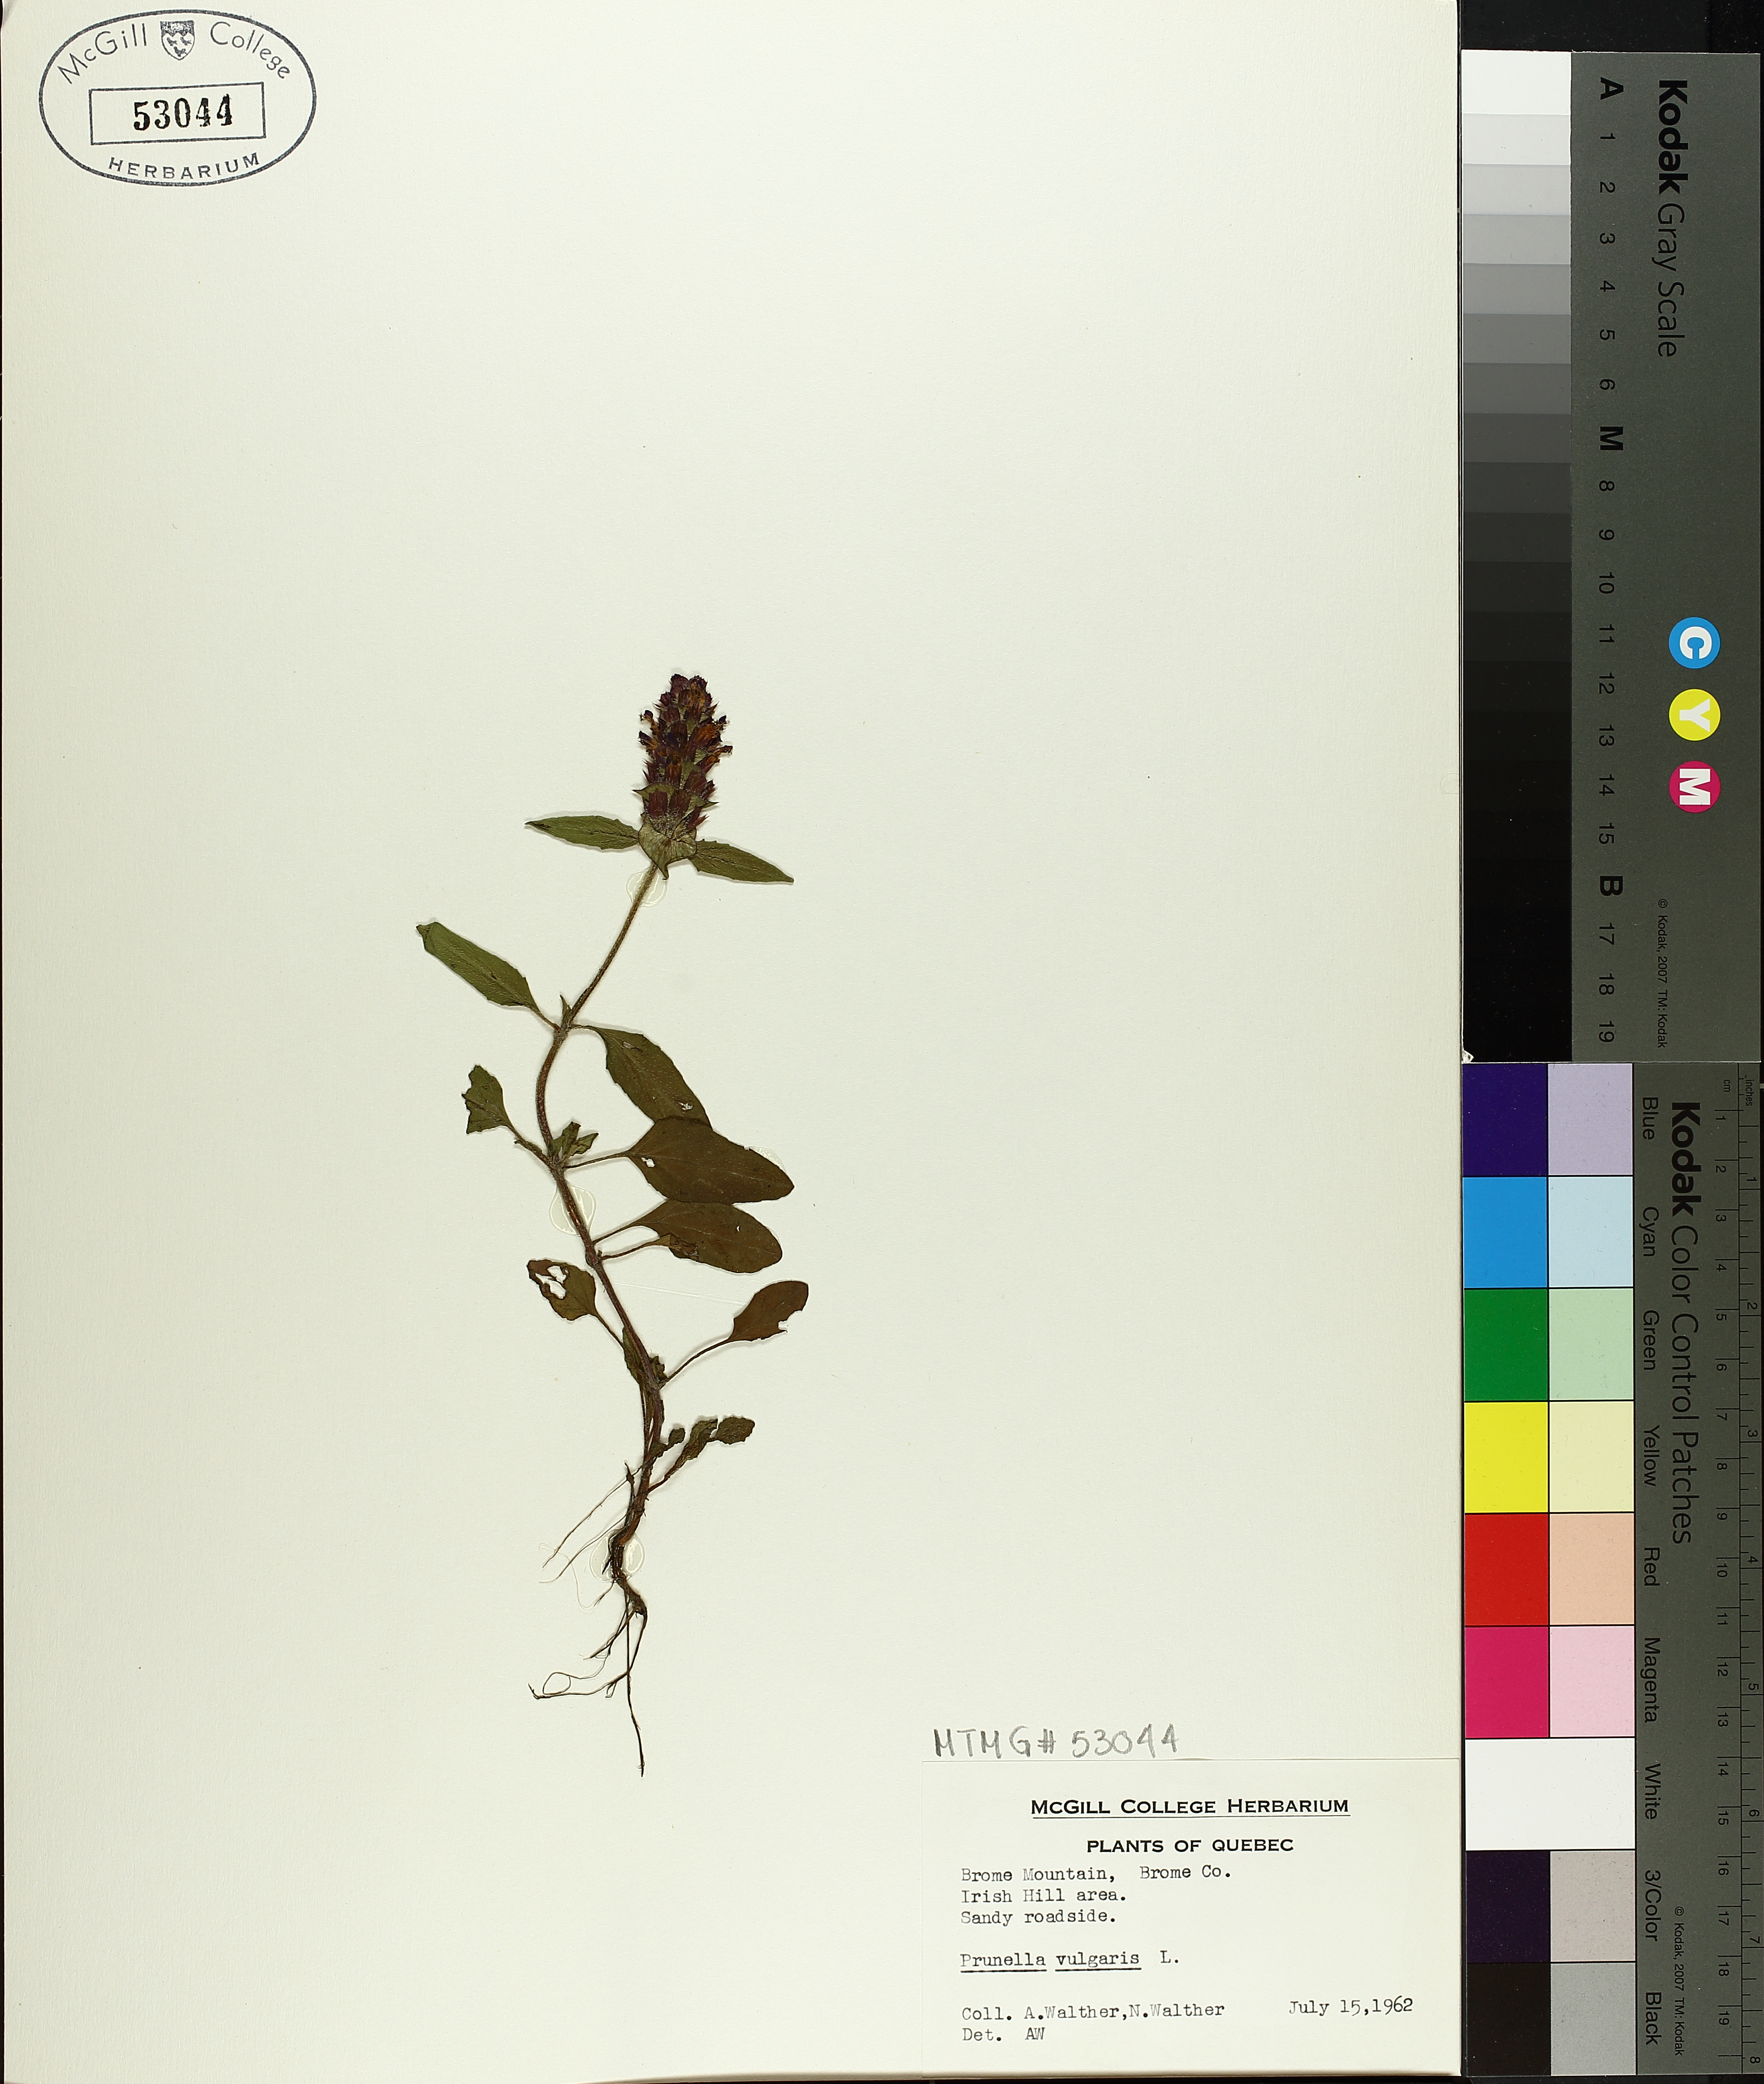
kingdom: Plantae
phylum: Tracheophyta
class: Magnoliopsida
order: Lamiales
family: Lamiaceae
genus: Prunella
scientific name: Prunella vulgaris
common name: Heal-all
